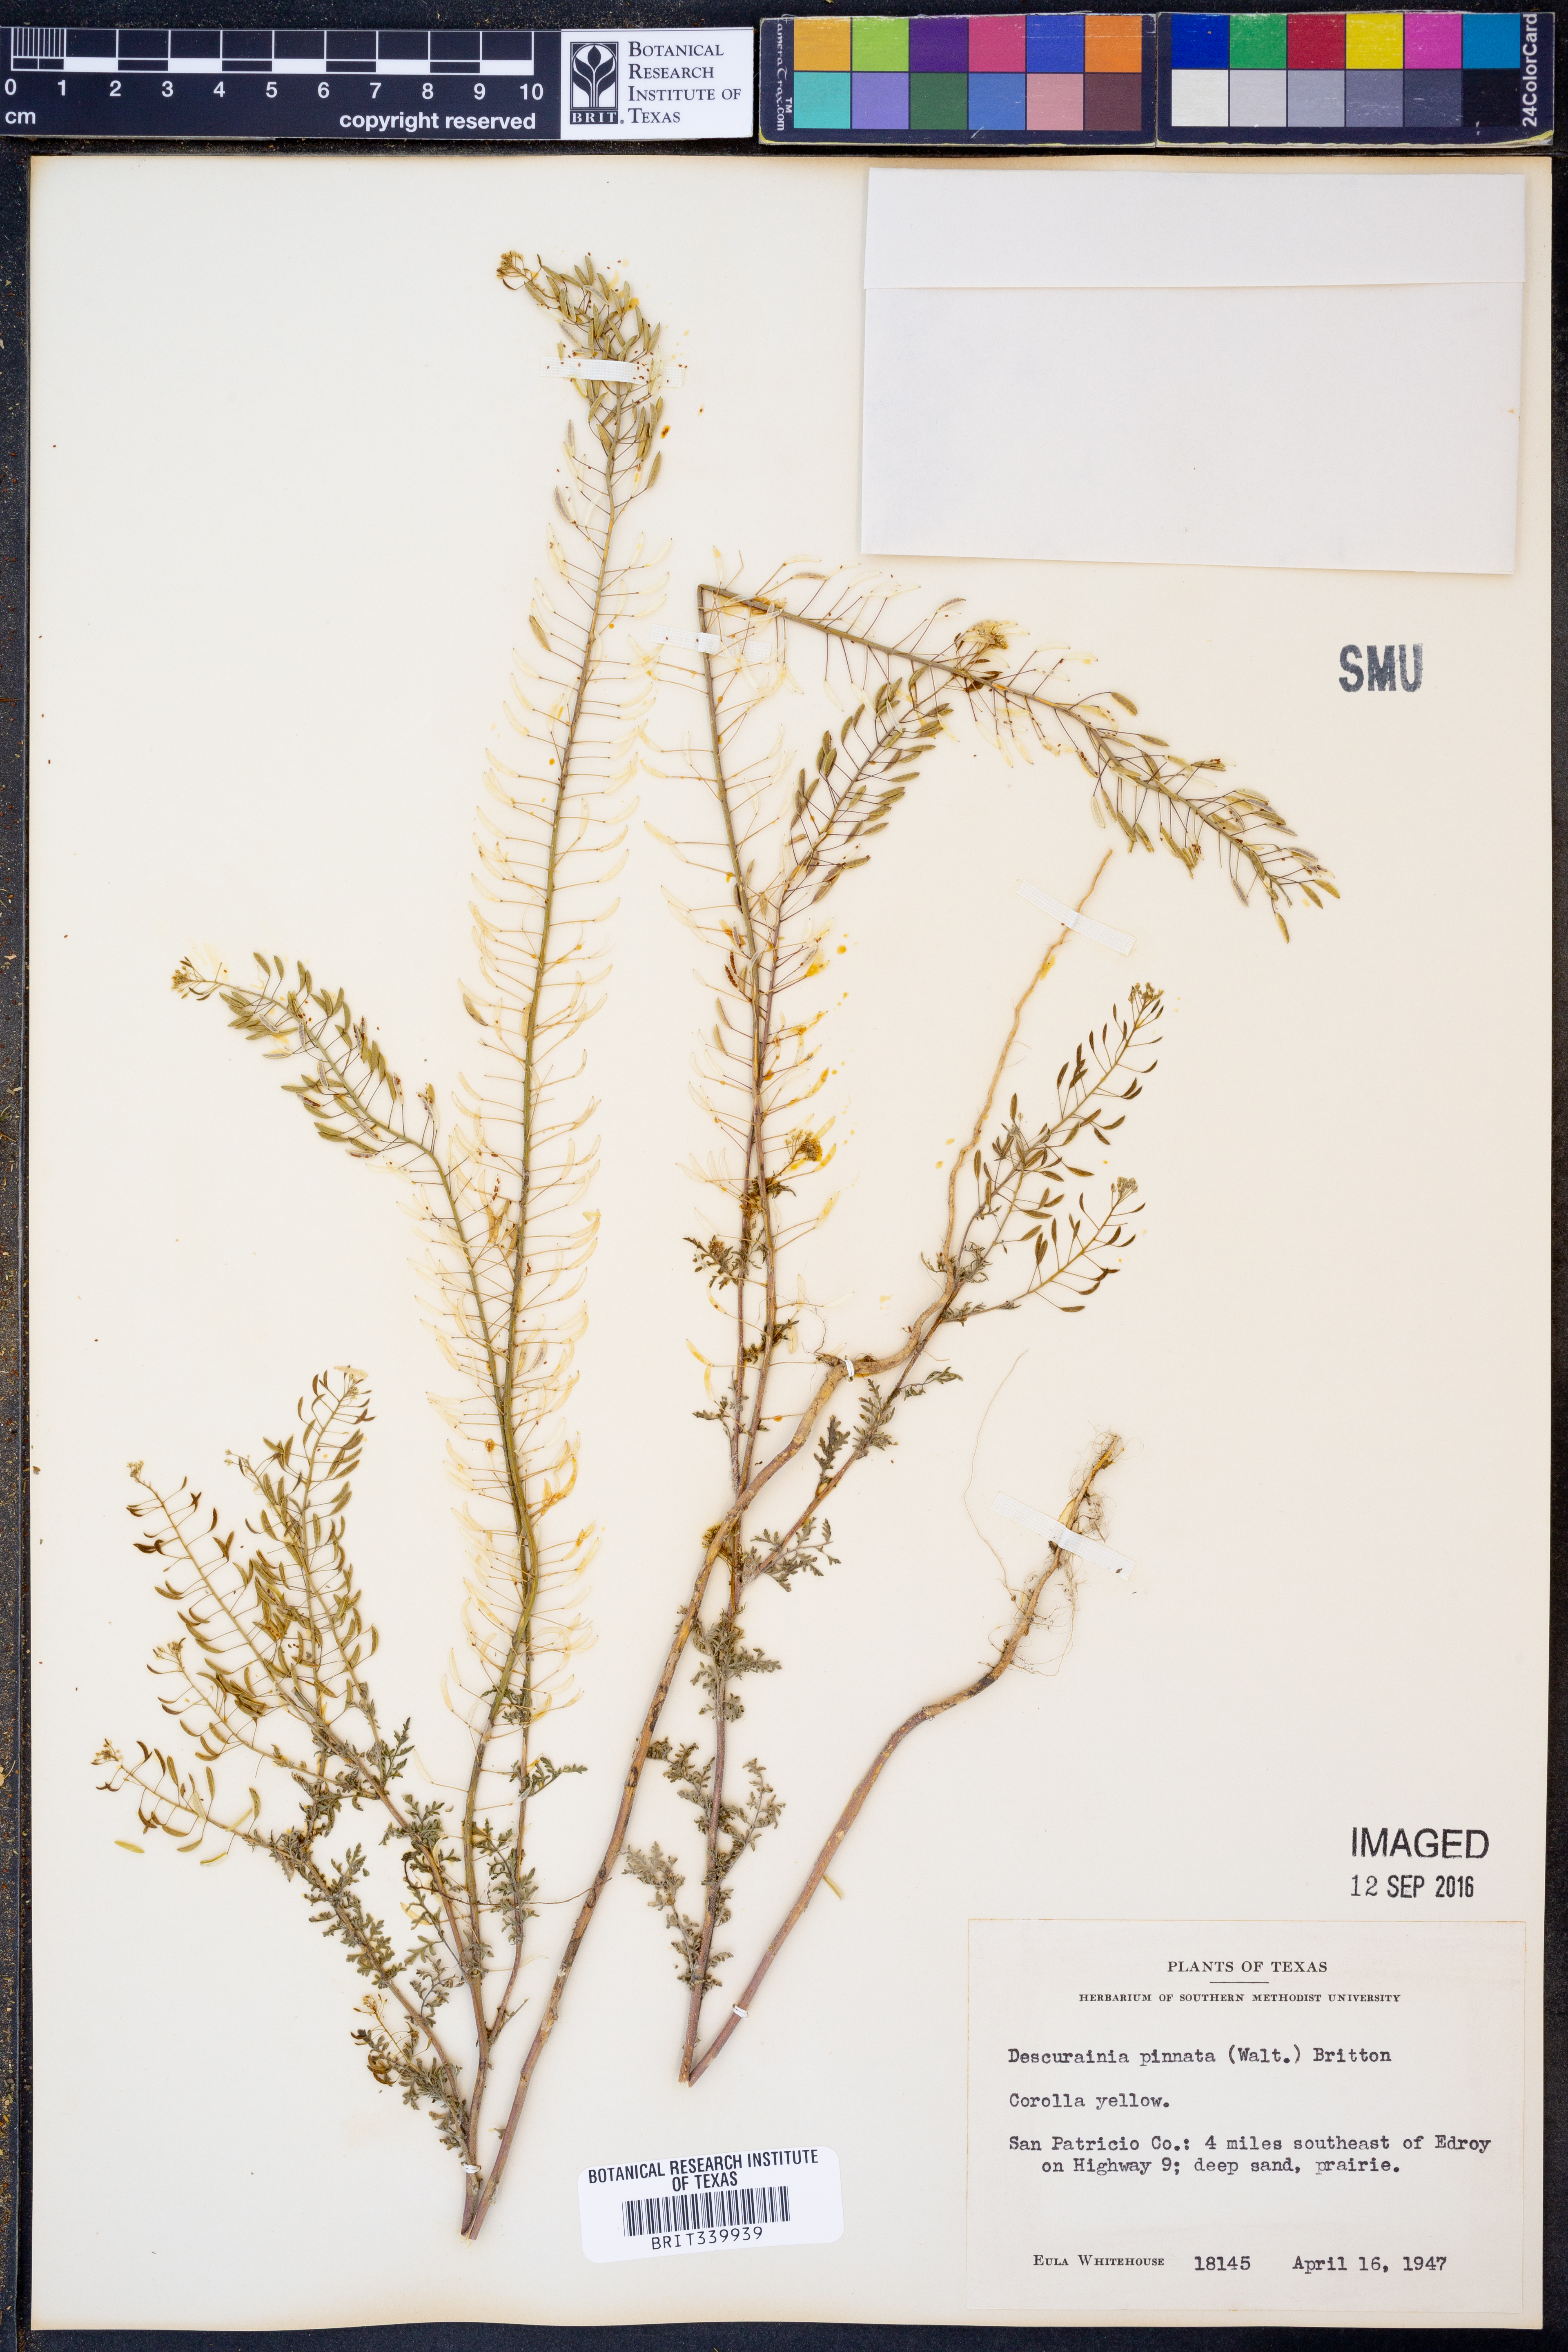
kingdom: Plantae
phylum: Tracheophyta
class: Magnoliopsida
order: Brassicales
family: Brassicaceae
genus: Descurainia
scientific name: Descurainia pinnata
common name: Western tansy mustard
